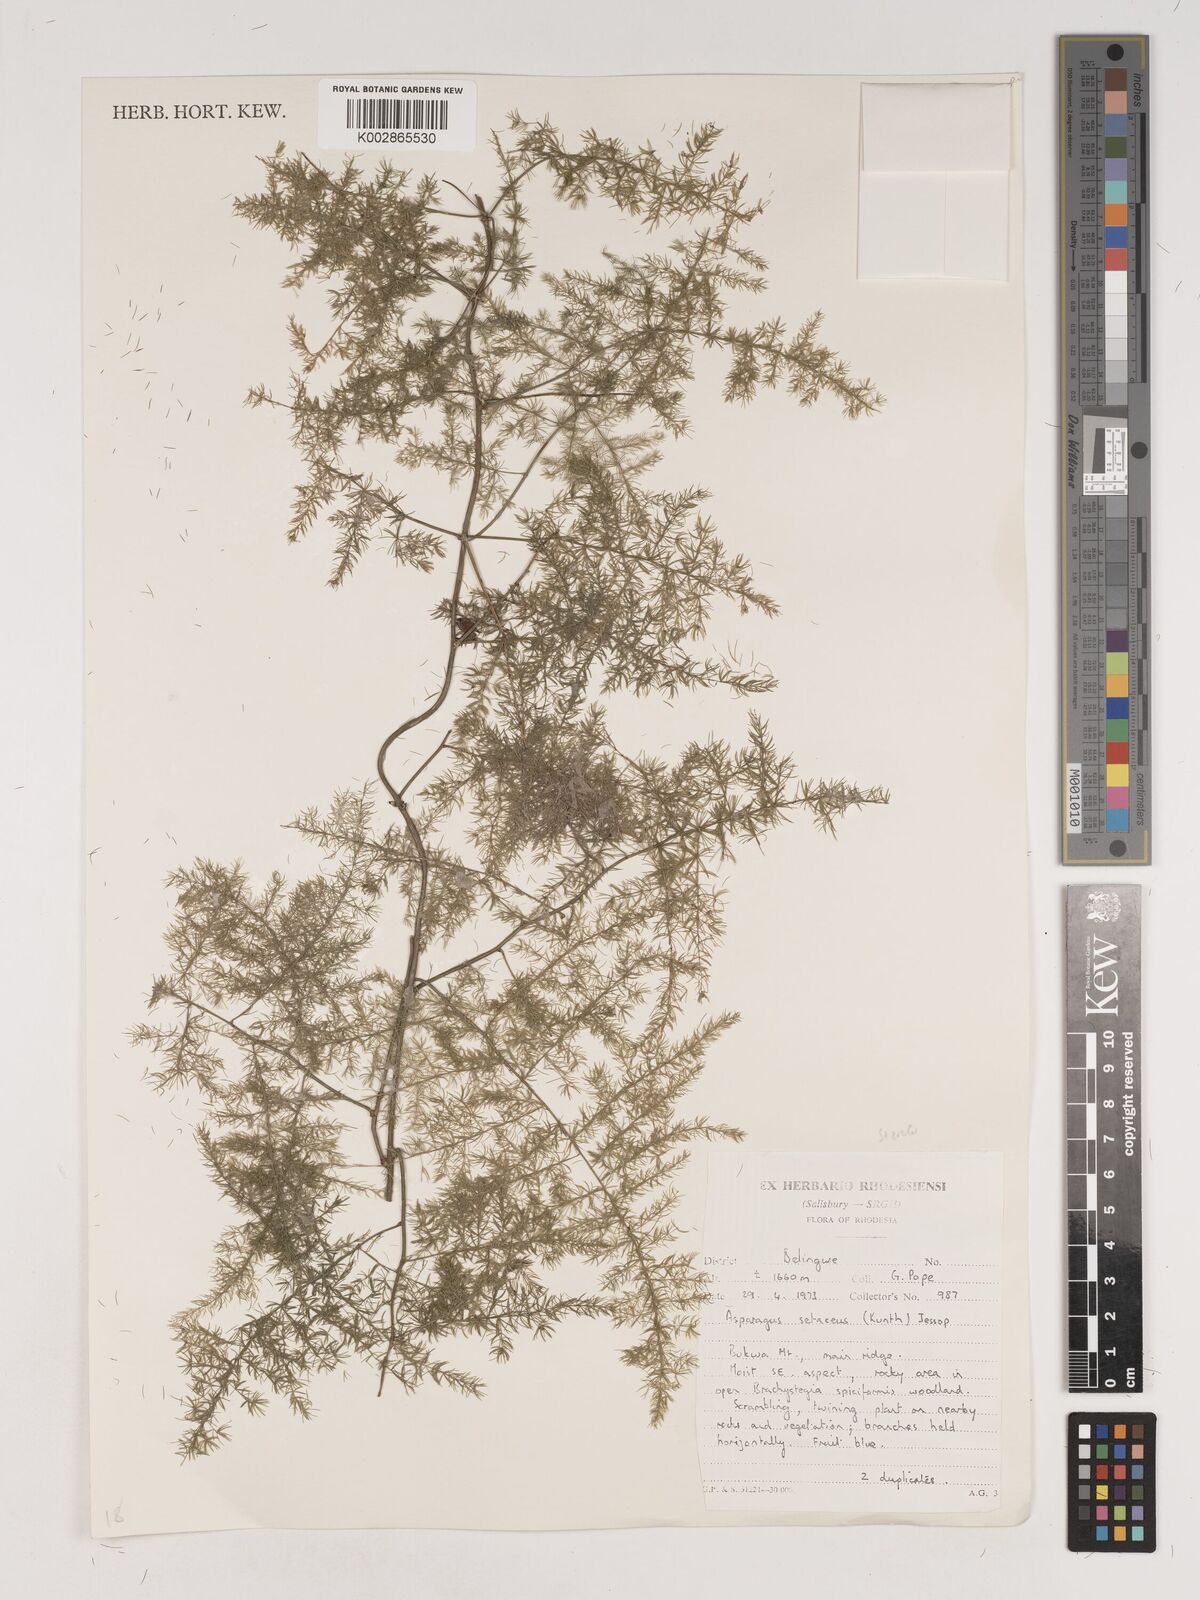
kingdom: Plantae
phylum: Tracheophyta
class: Liliopsida
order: Asparagales
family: Asparagaceae
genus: Asparagus
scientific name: Asparagus setaceus
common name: Common asparagus fern
